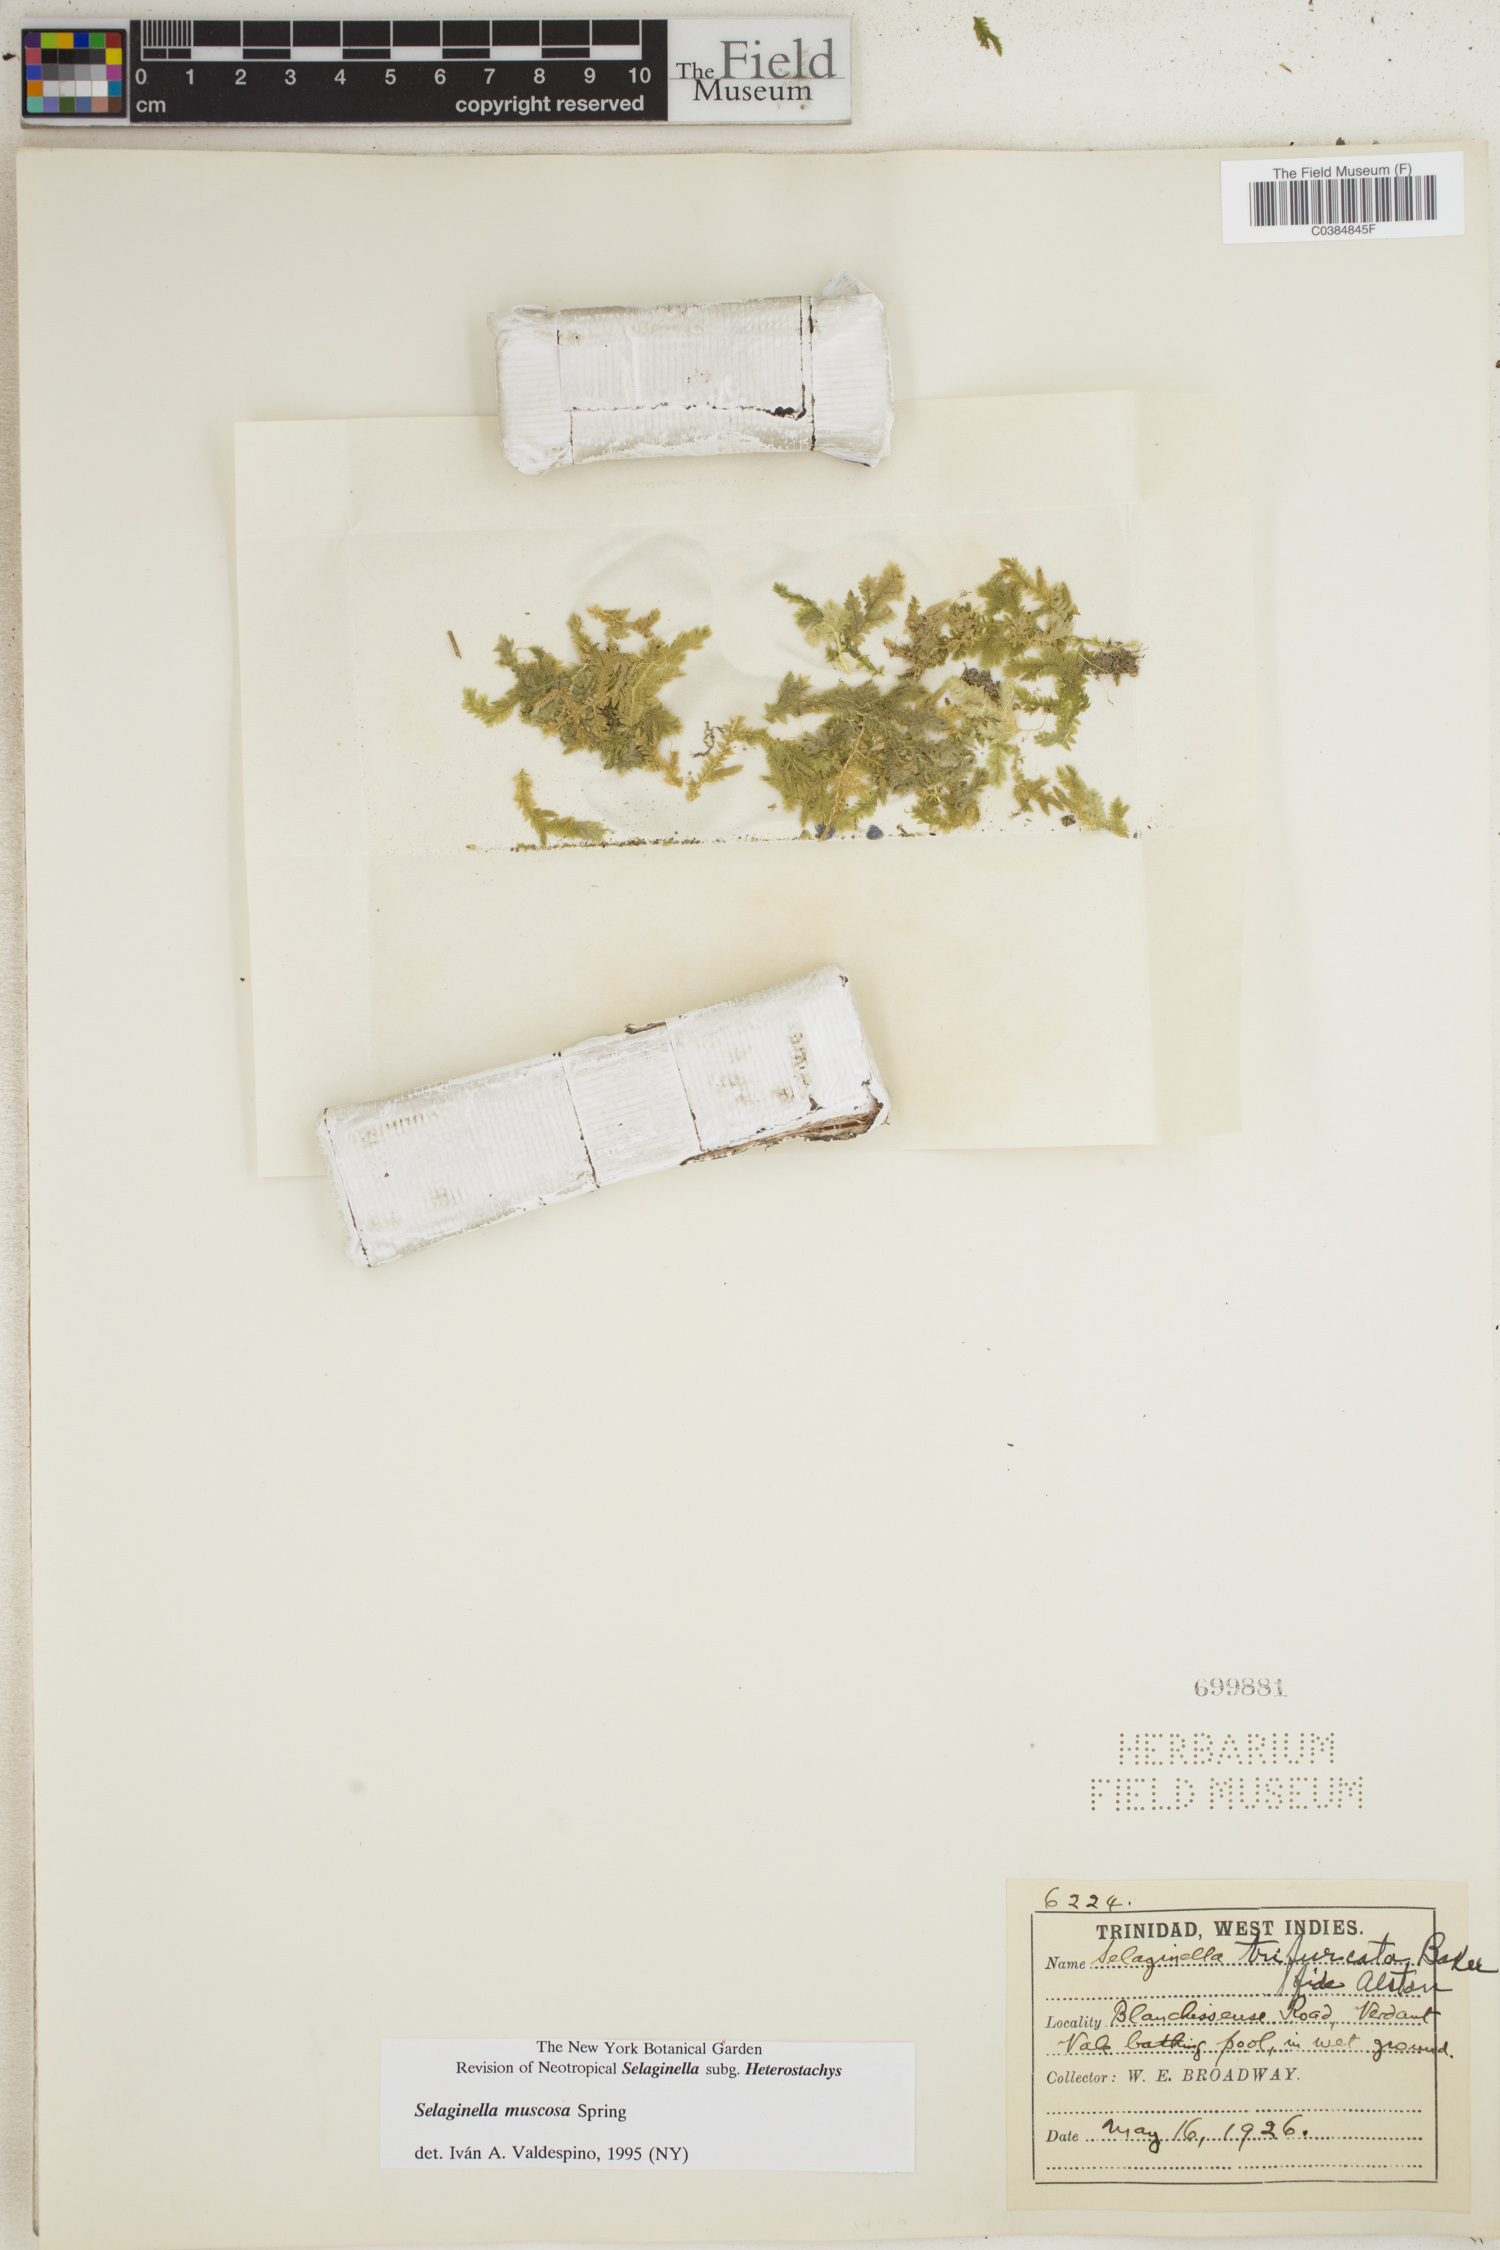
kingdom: Plantae
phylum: Tracheophyta
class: Lycopodiopsida
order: Selaginellales
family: Selaginellaceae
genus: Selaginella
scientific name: Selaginella muscosa
